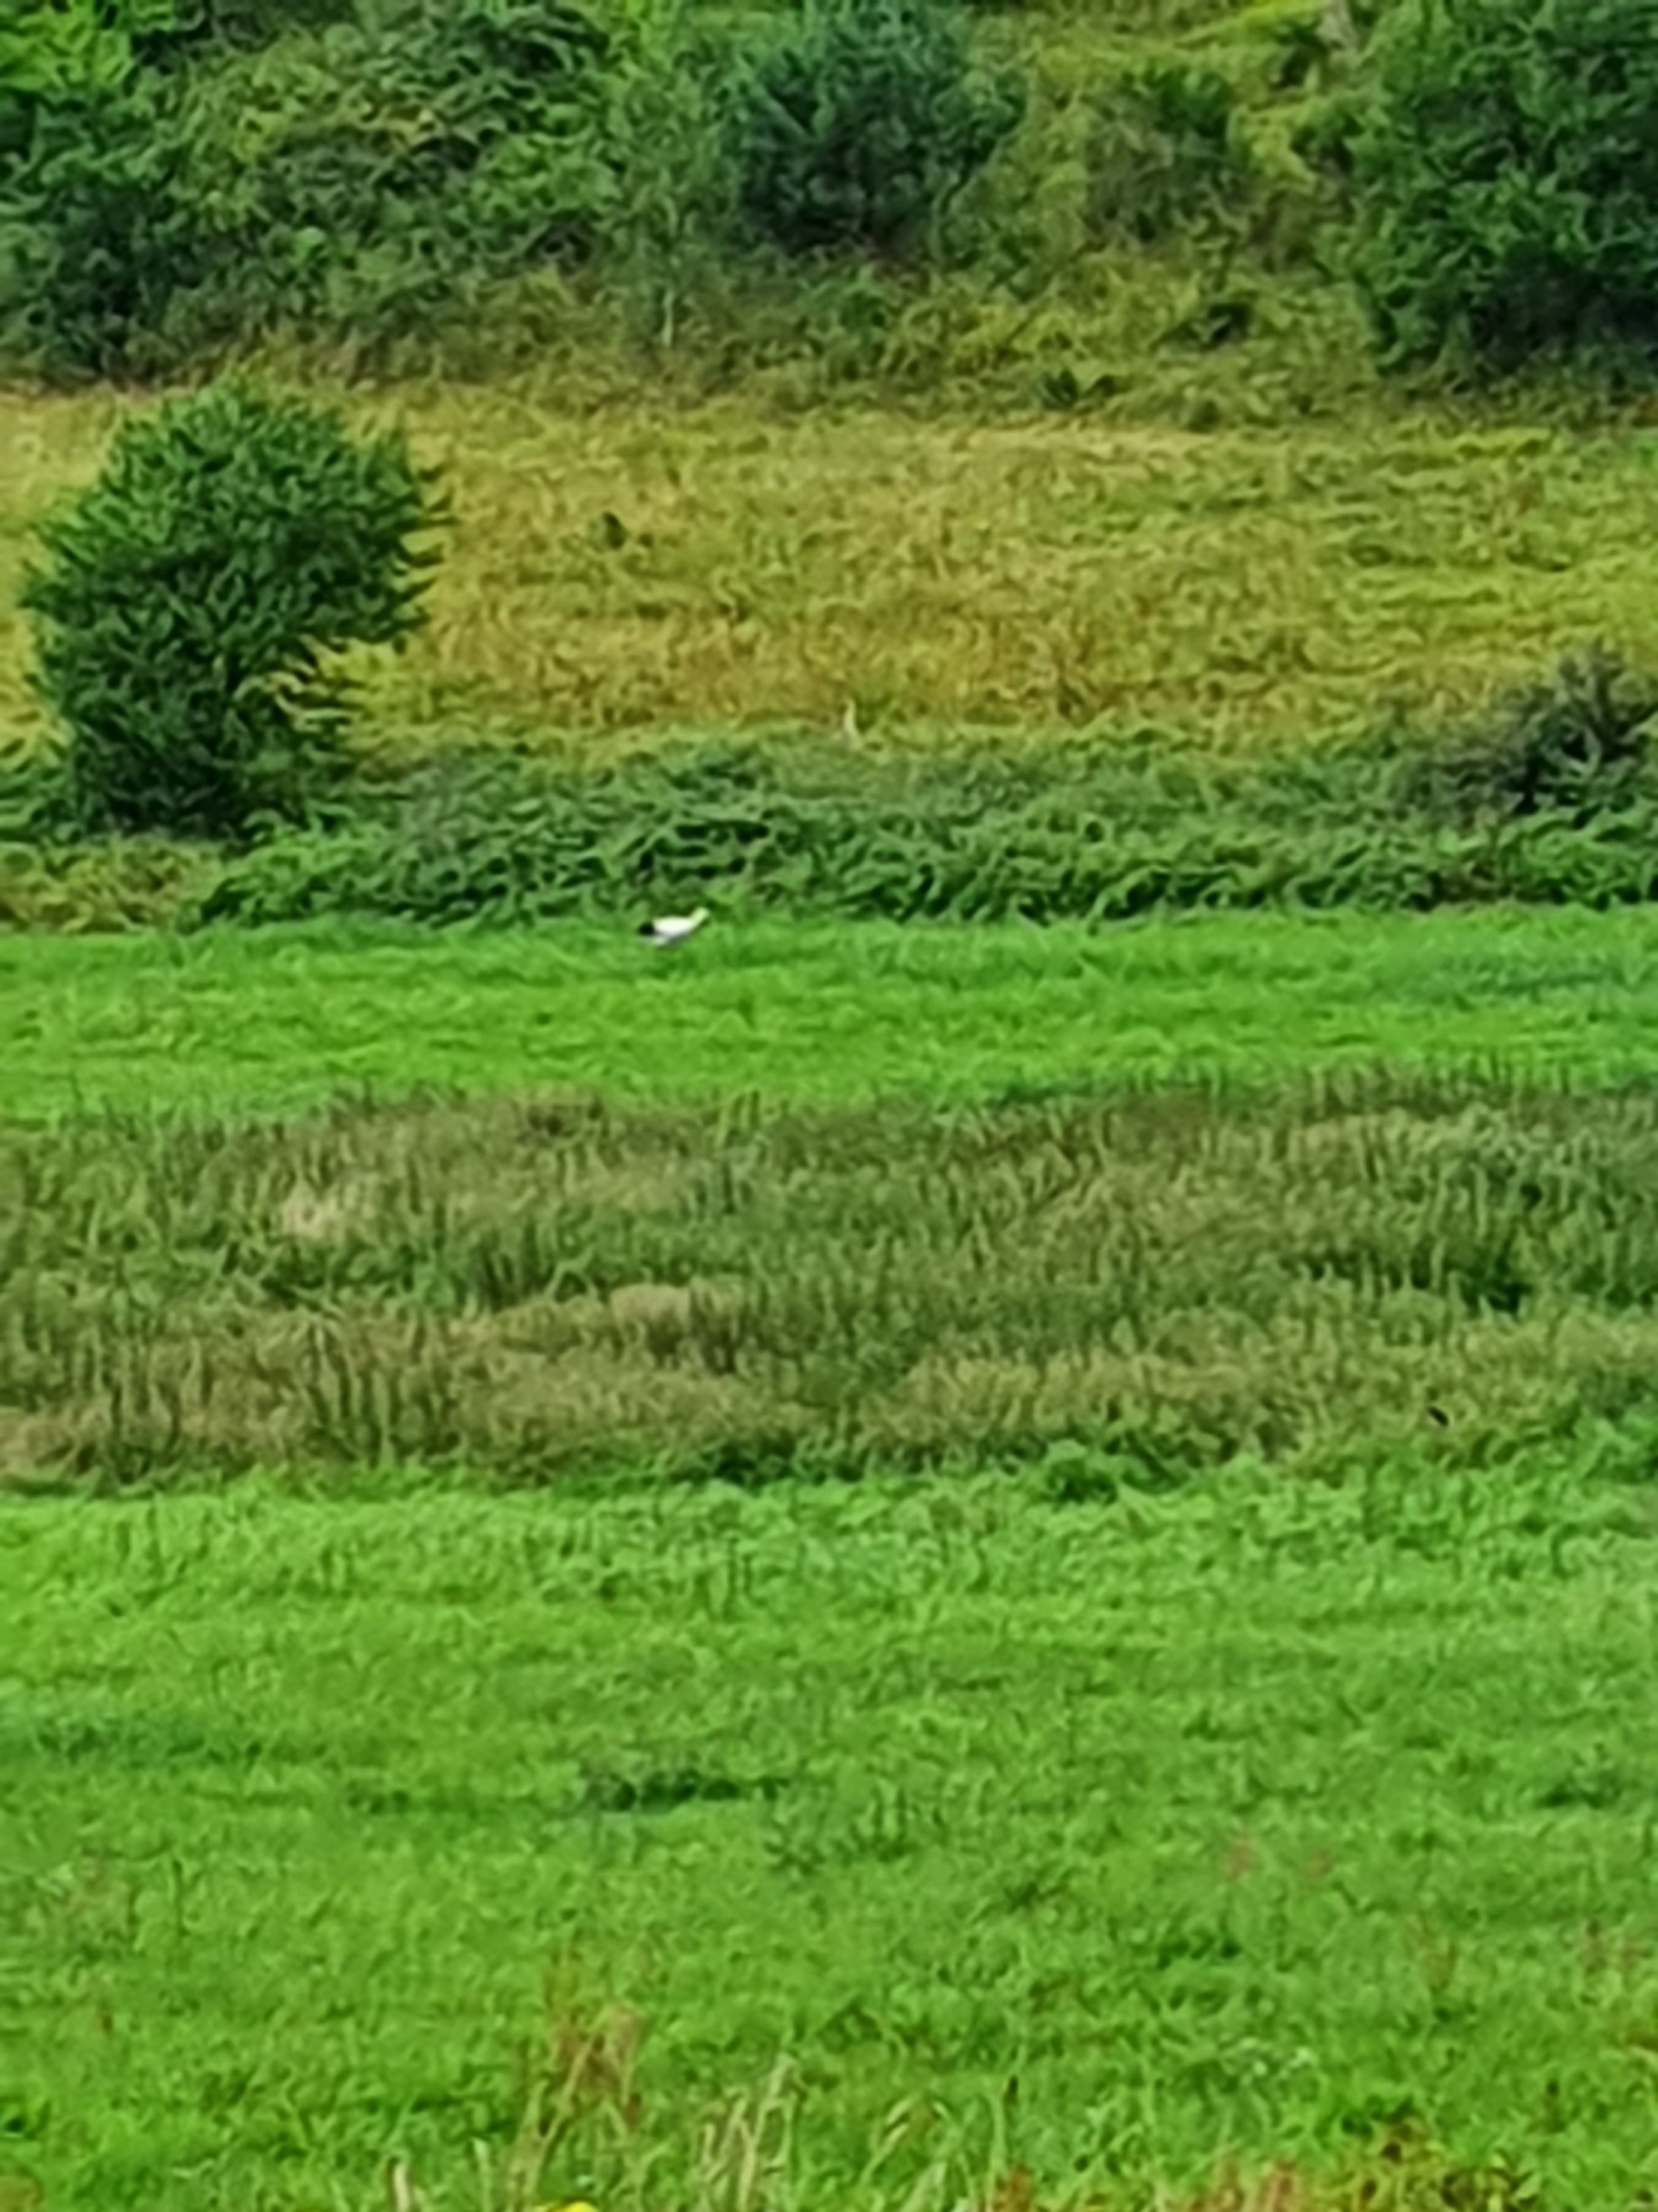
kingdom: Animalia
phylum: Chordata
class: Aves
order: Ciconiiformes
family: Ciconiidae
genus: Ciconia
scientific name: Ciconia ciconia
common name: Hvid stork
